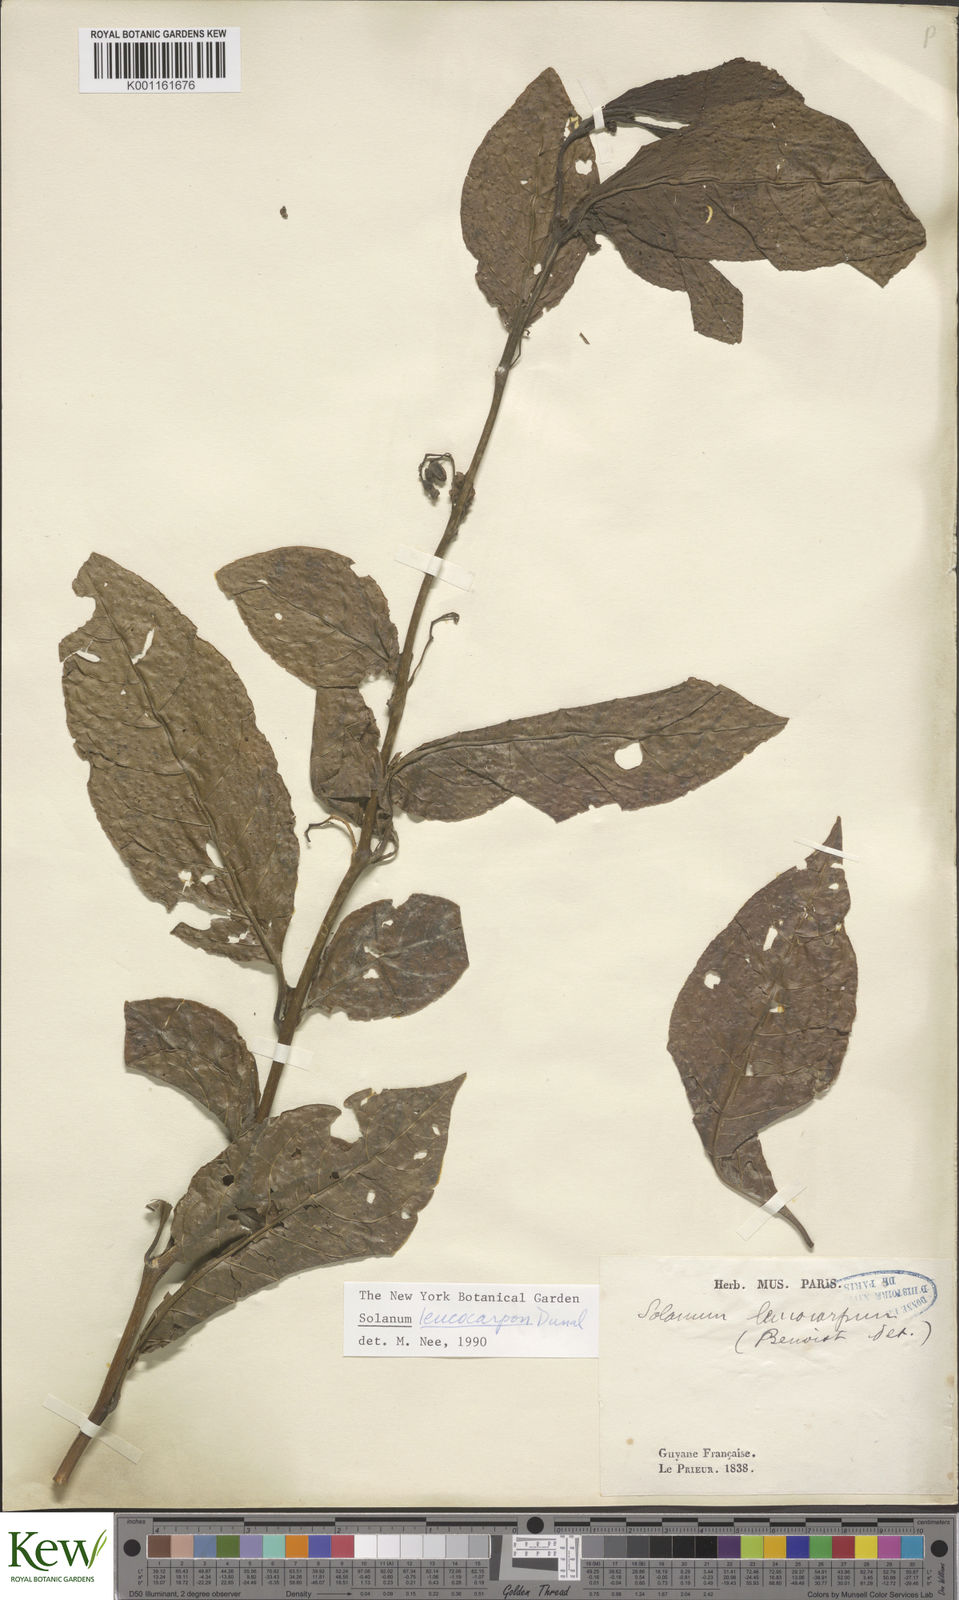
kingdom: Plantae
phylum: Tracheophyta
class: Magnoliopsida
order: Solanales
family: Solanaceae
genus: Solanum
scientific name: Solanum leucocarpon
